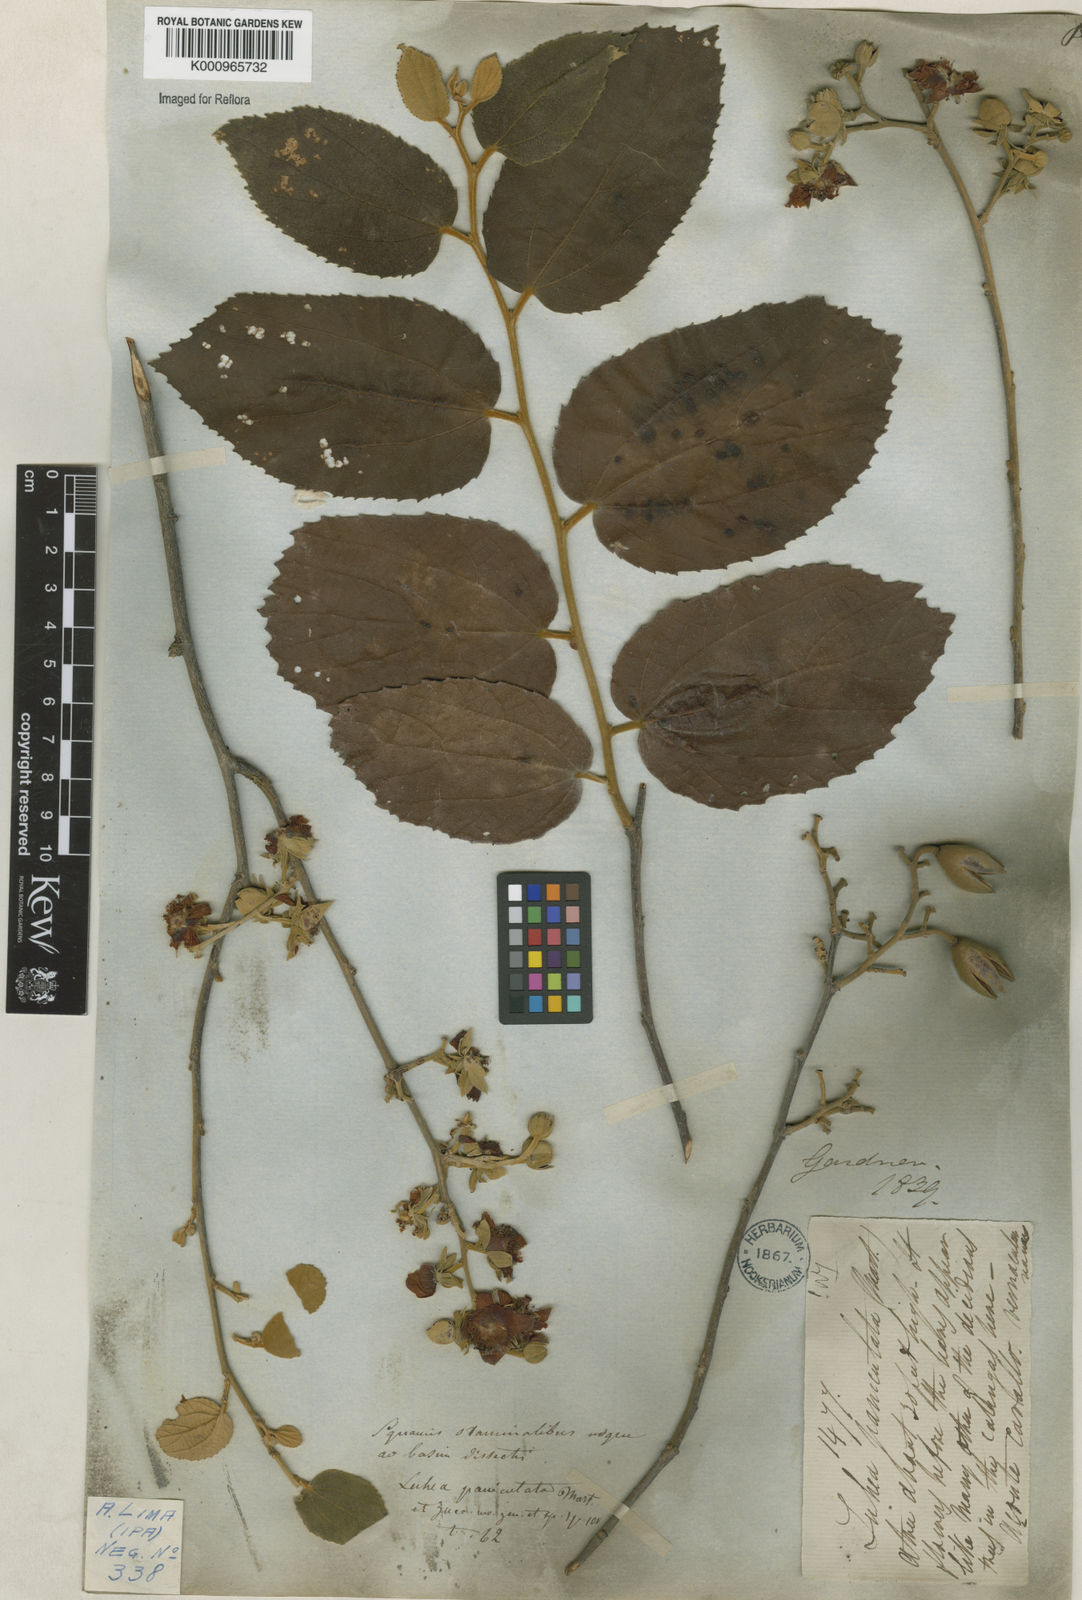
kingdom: Plantae
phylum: Tracheophyta
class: Magnoliopsida
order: Malvales
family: Malvaceae
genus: Luehea
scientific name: Luehea paniculata
